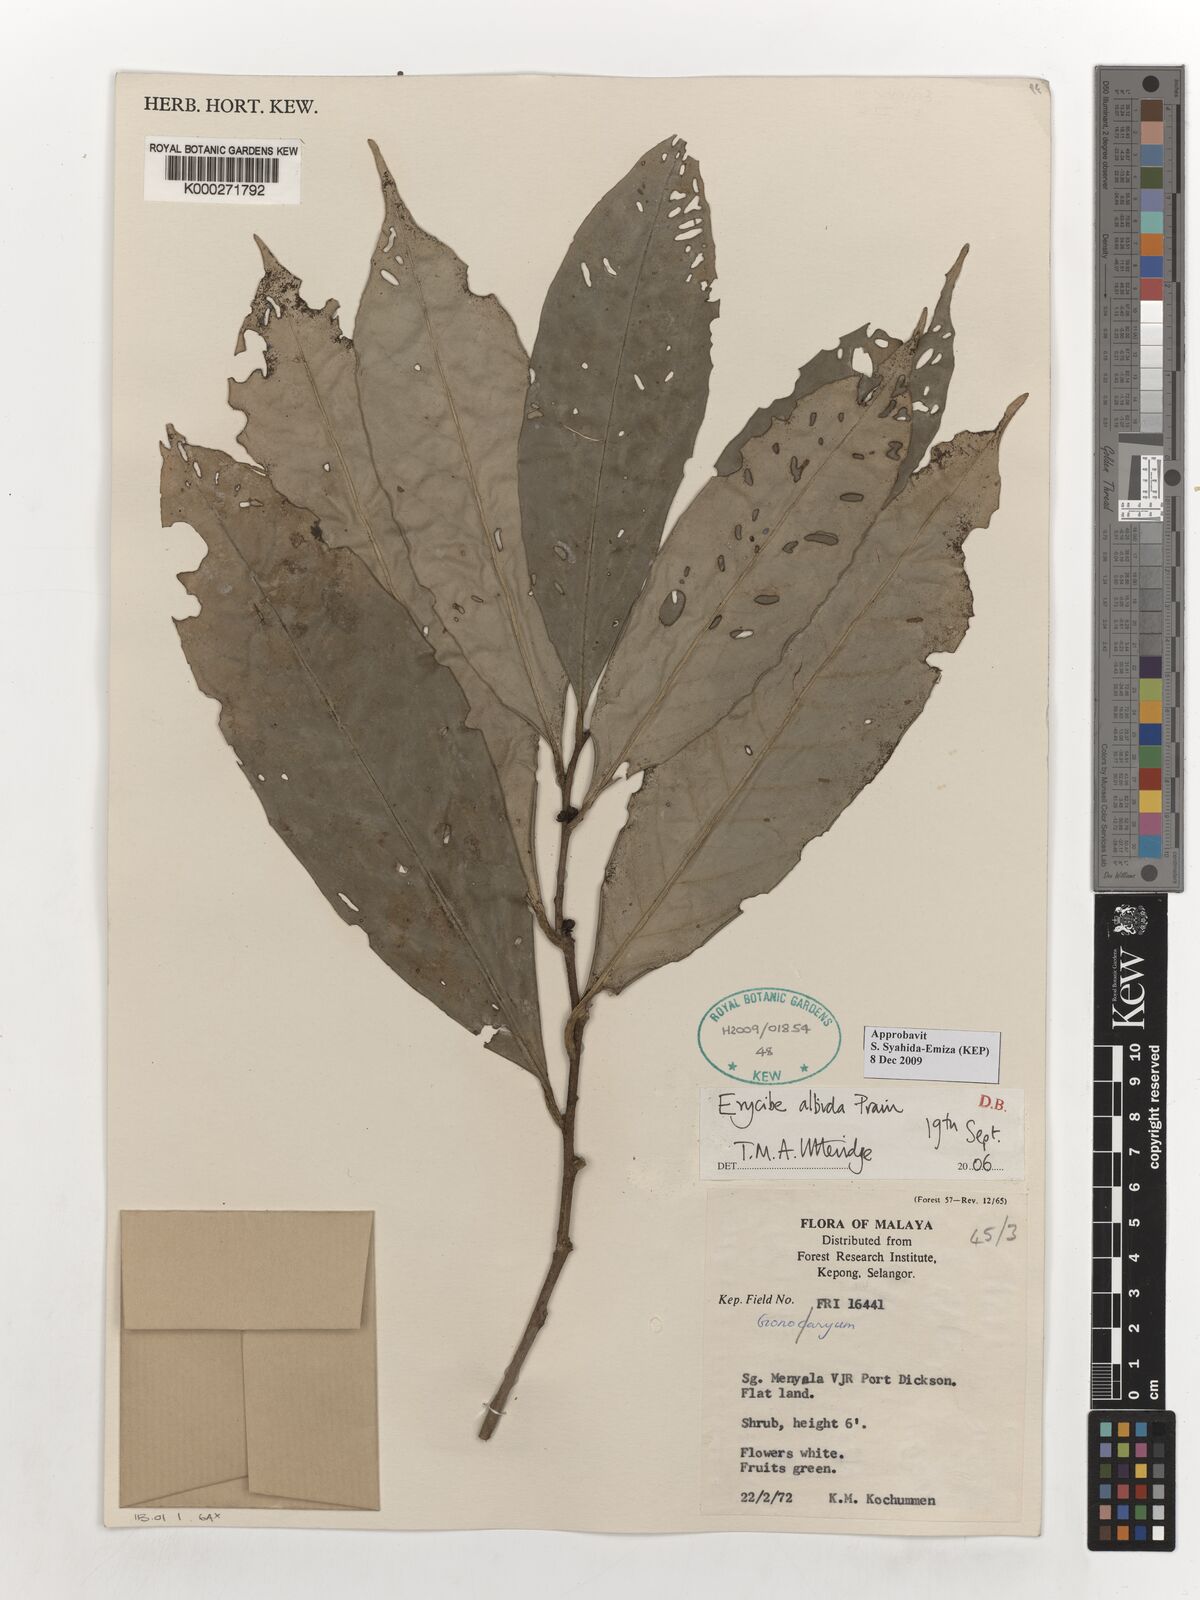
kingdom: Plantae
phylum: Tracheophyta
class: Magnoliopsida
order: Solanales
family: Convolvulaceae
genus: Erycibe
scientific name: Erycibe albida
